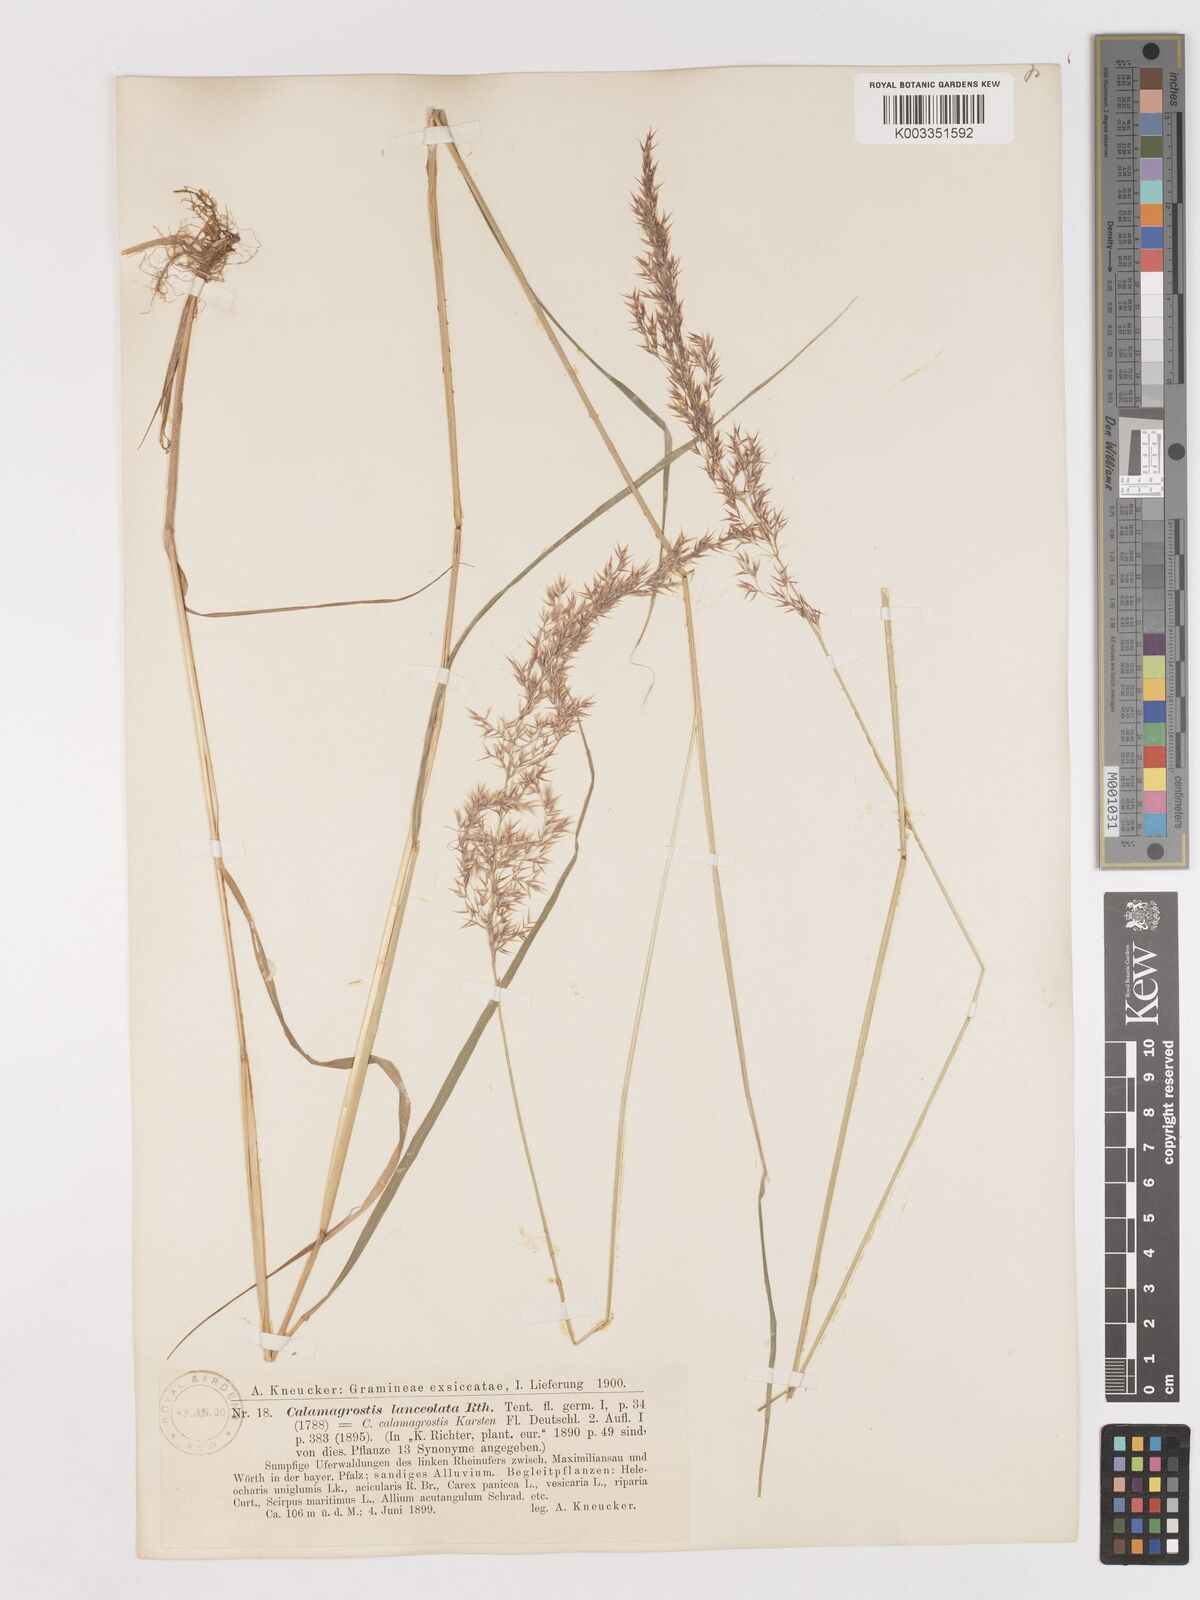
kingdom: Plantae
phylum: Tracheophyta
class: Liliopsida
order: Poales
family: Poaceae
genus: Calamagrostis
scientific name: Calamagrostis canescens
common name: Purple small-reed
